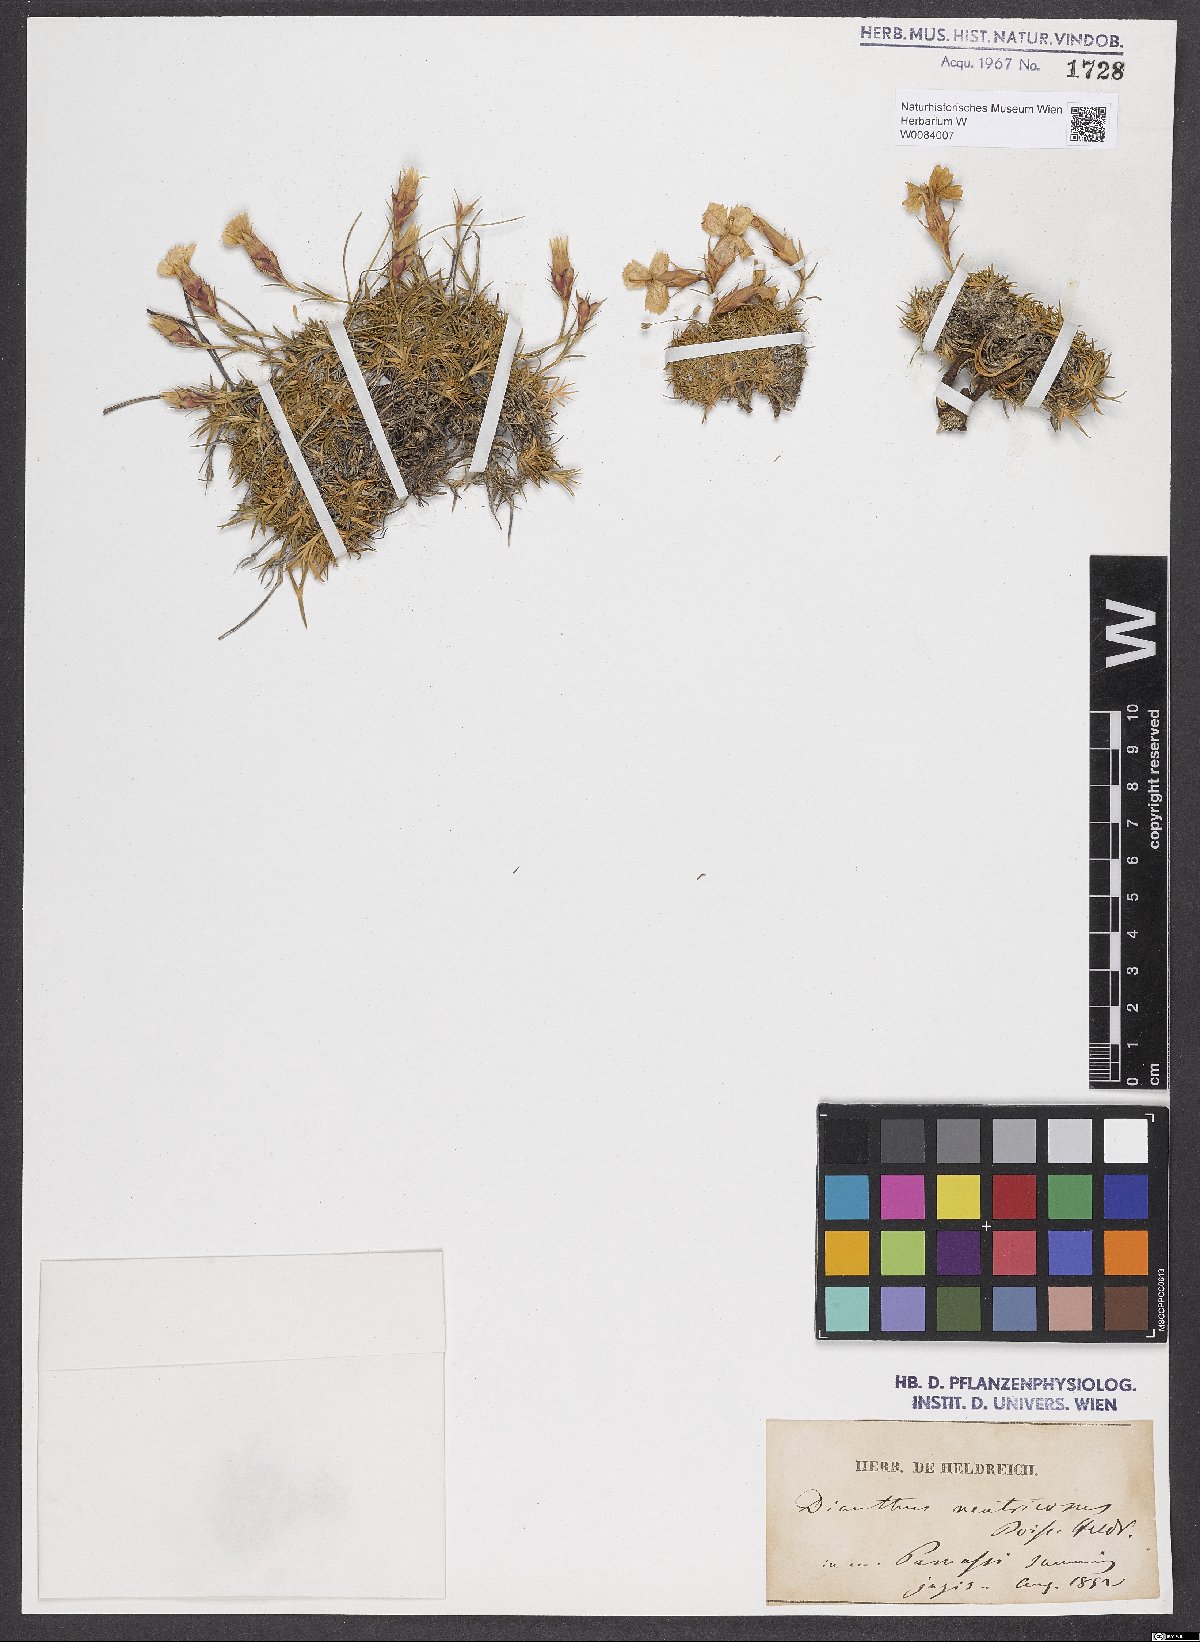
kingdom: Plantae
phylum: Tracheophyta
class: Magnoliopsida
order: Caryophyllales
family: Caryophyllaceae
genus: Dianthus
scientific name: Dianthus haematocalyx
